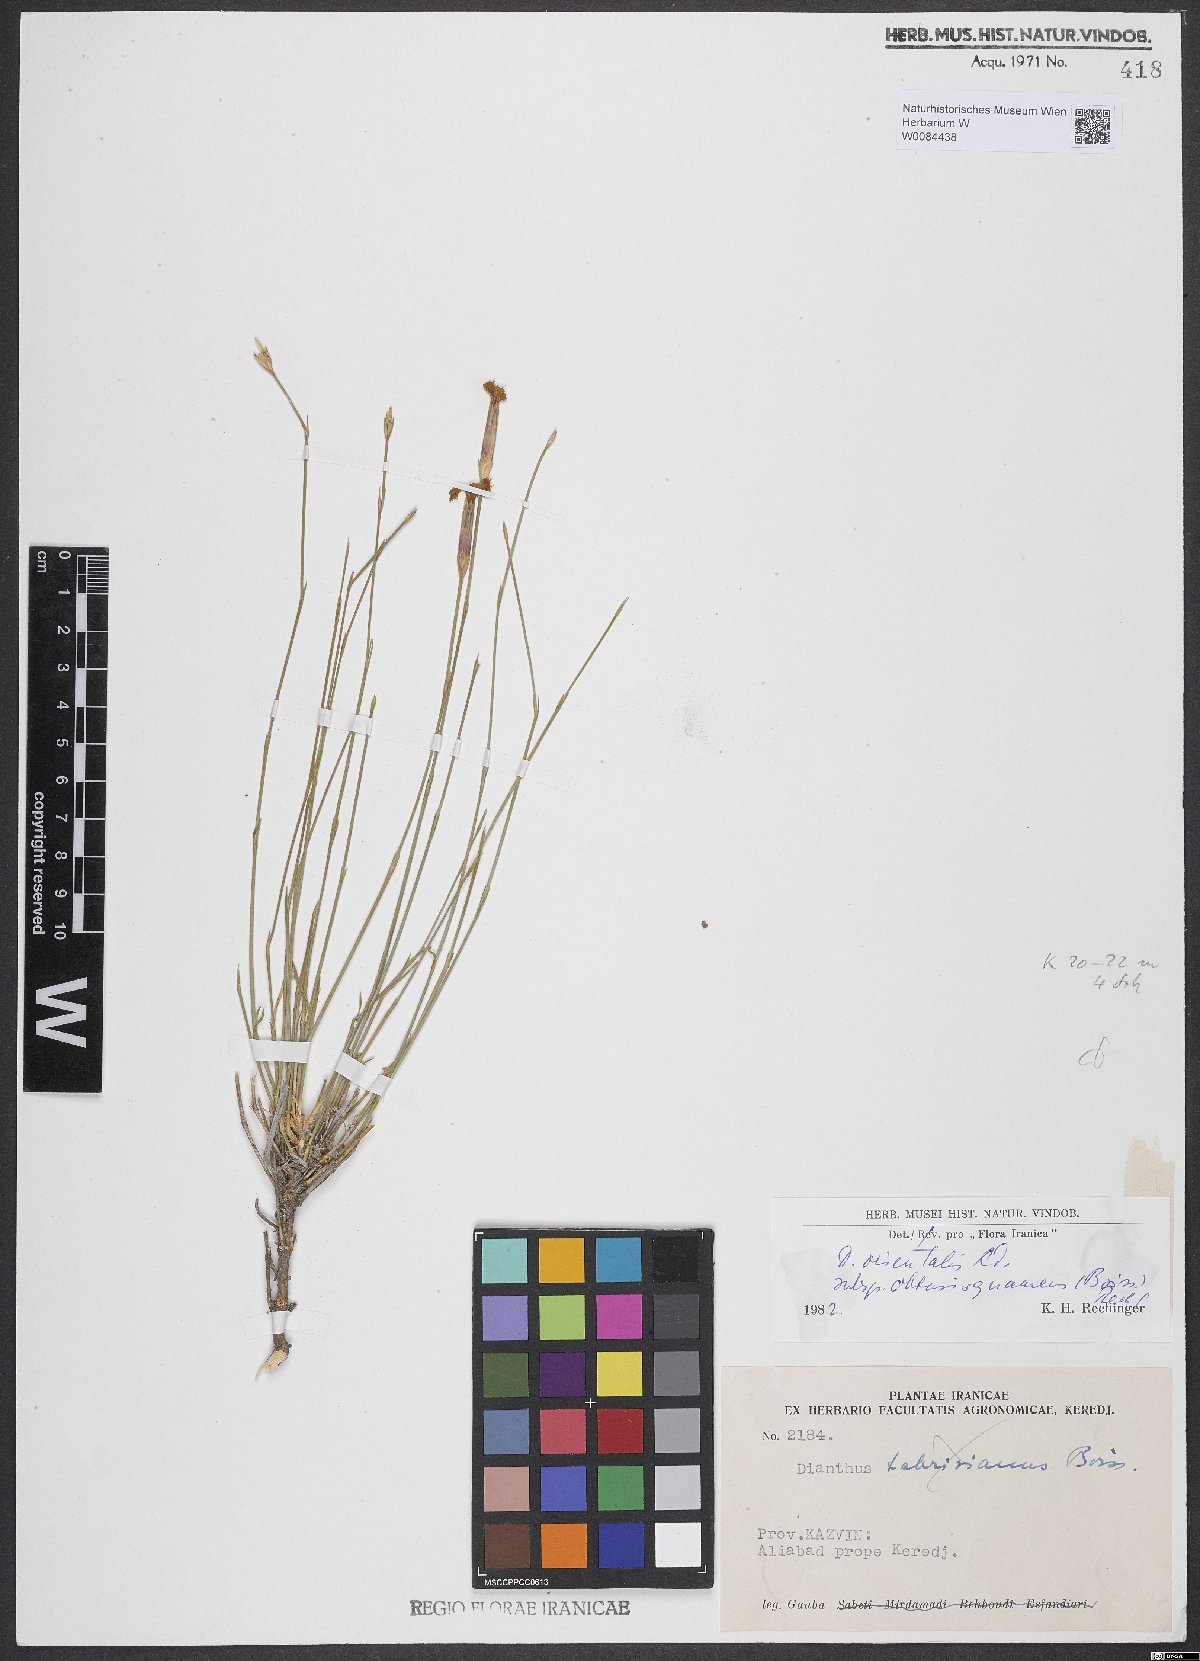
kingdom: Plantae
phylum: Tracheophyta
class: Magnoliopsida
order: Caryophyllales
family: Caryophyllaceae
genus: Dianthus
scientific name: Dianthus orientalis
